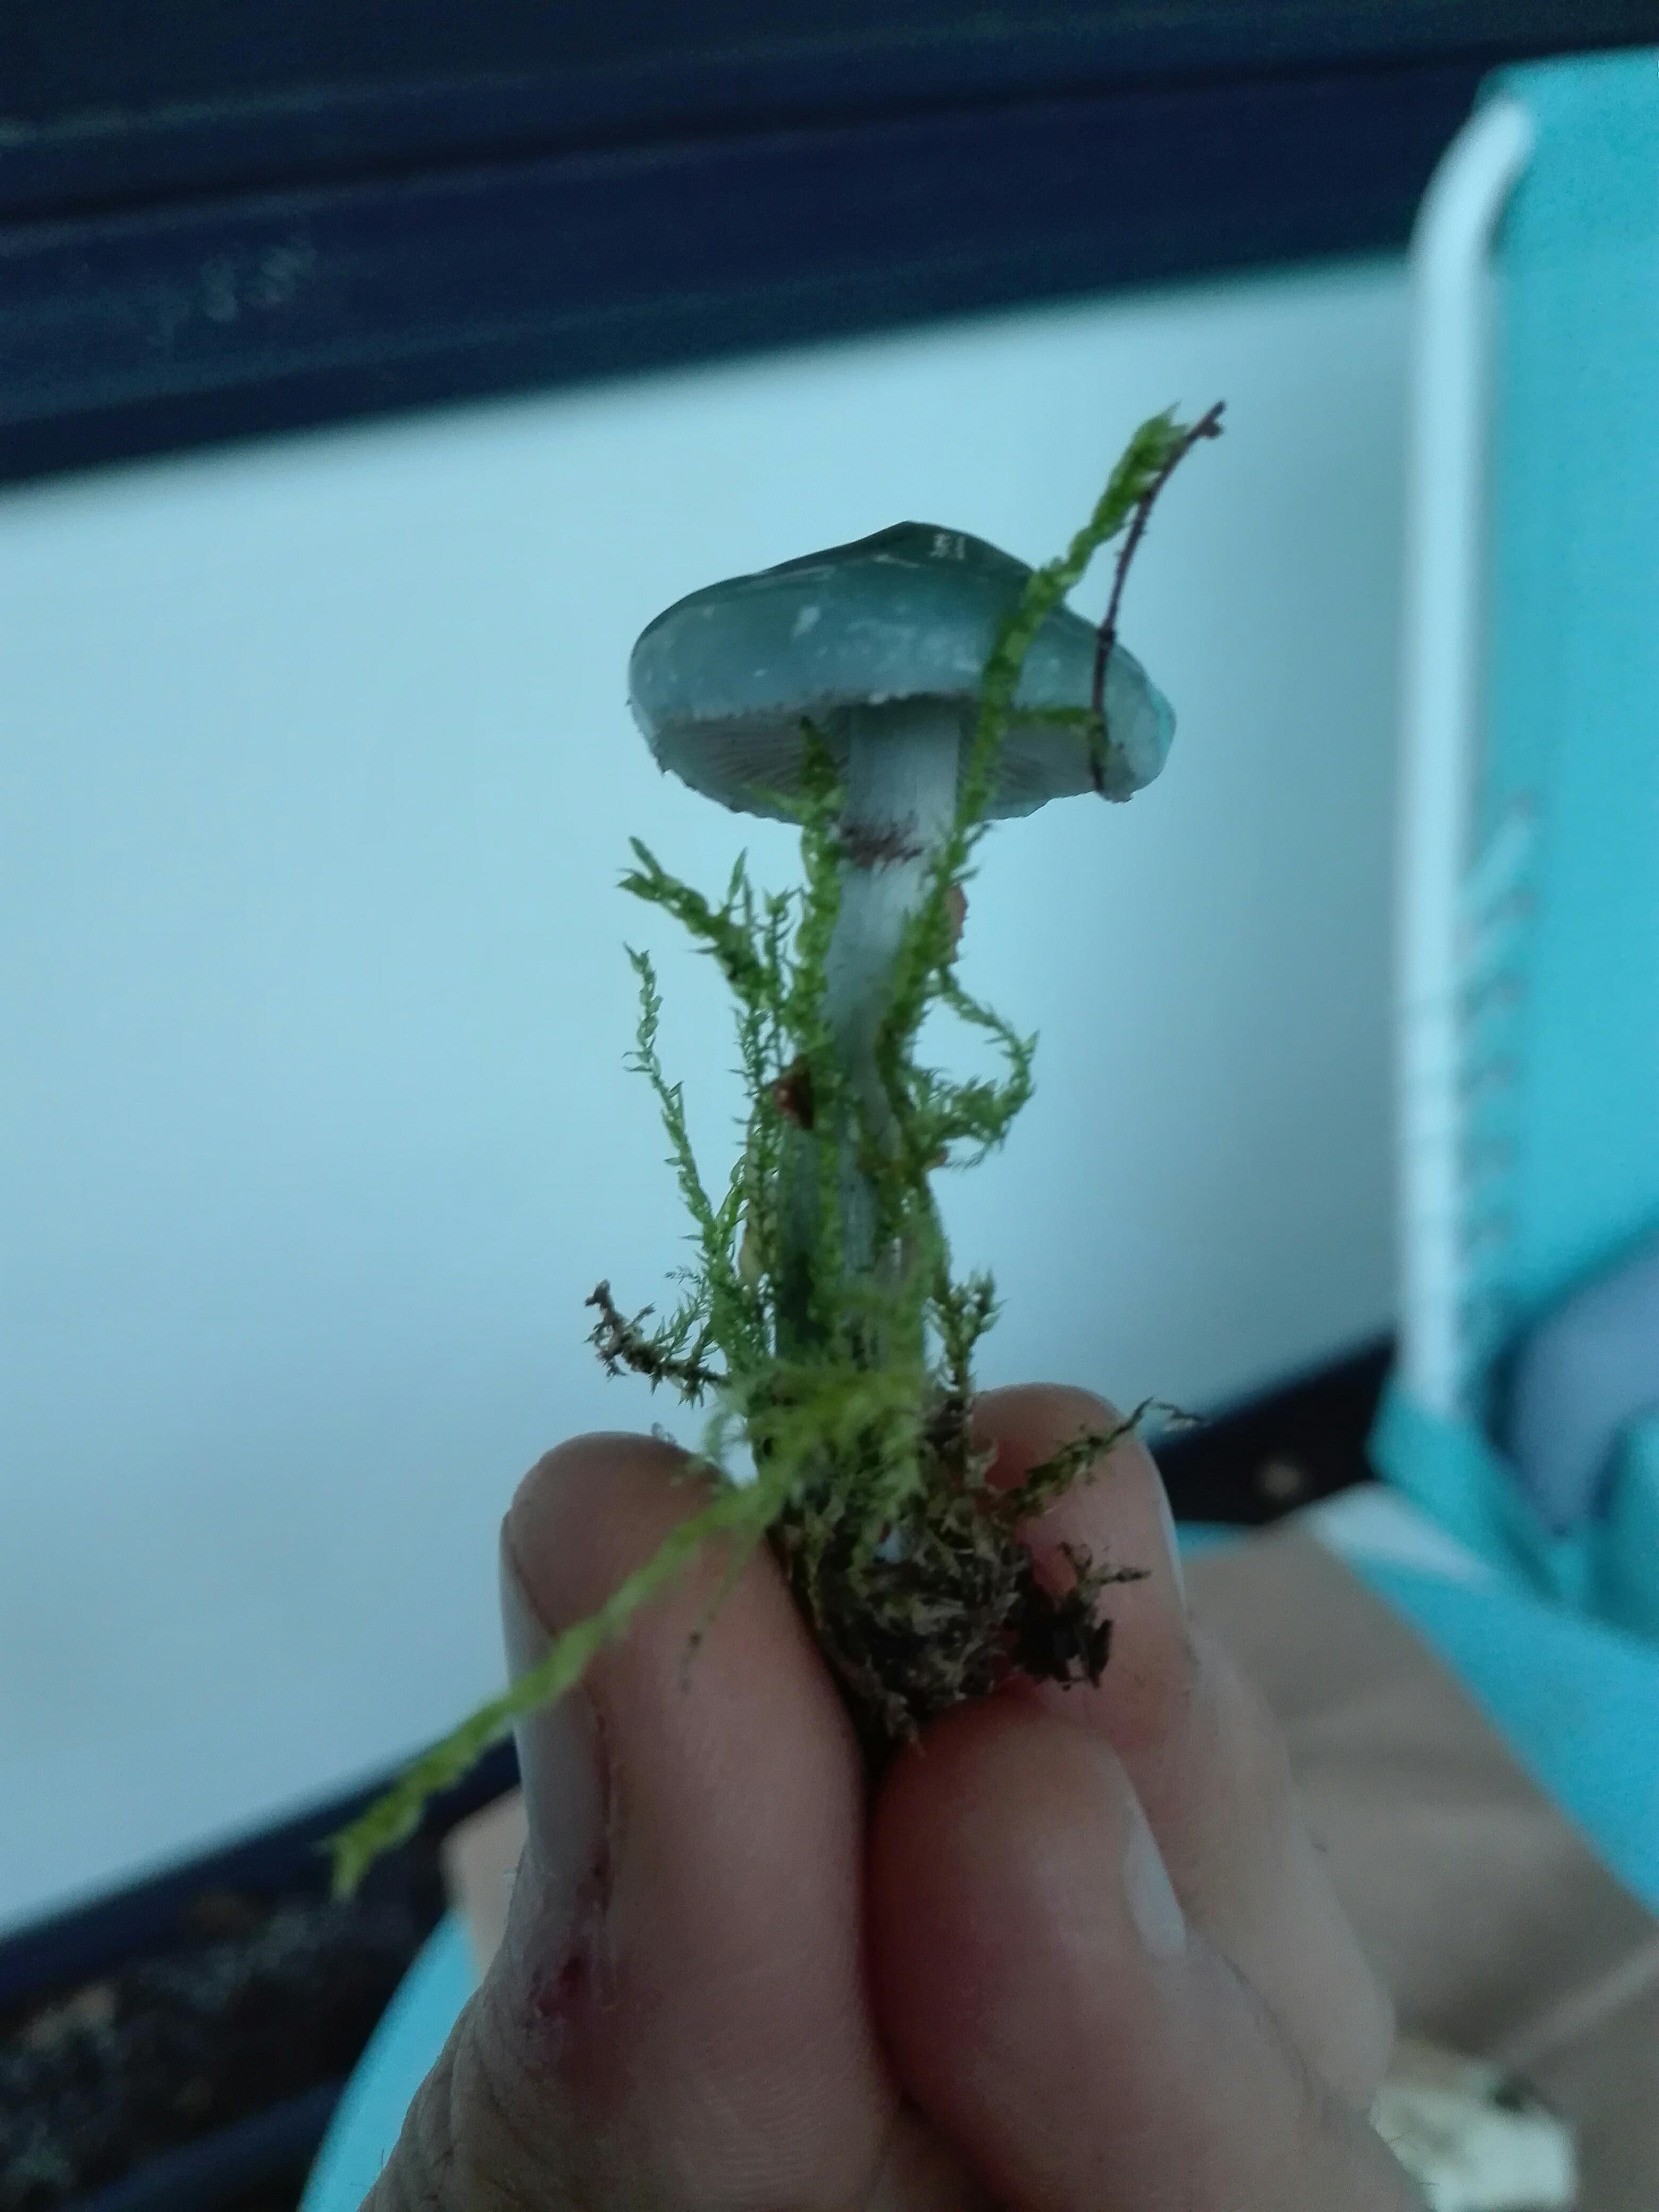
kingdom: Fungi
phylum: Basidiomycota
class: Agaricomycetes
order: Agaricales
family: Strophariaceae
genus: Stropharia
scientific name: Stropharia
